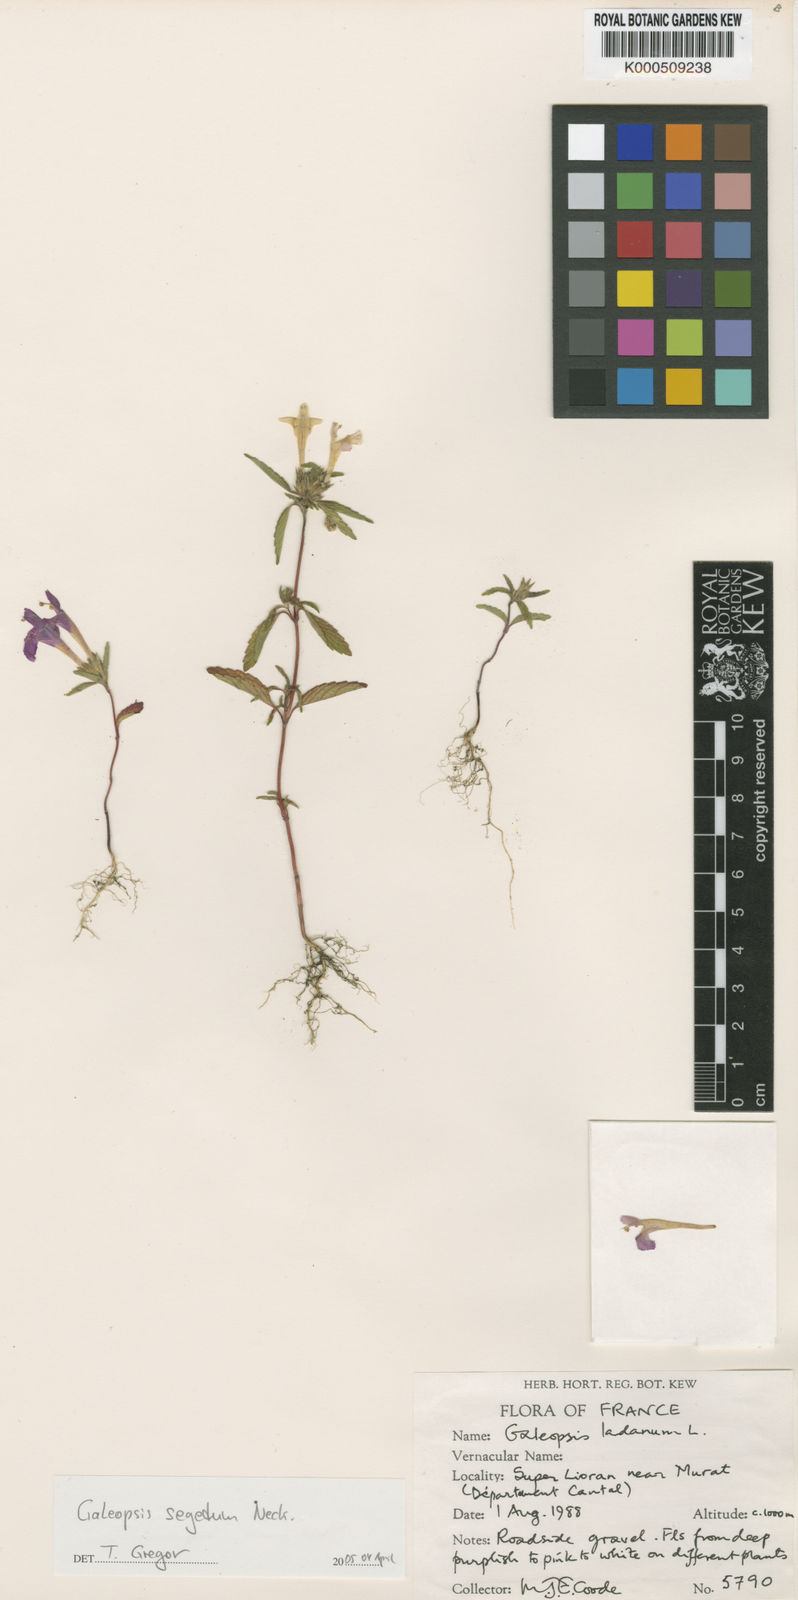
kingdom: Plantae
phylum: Tracheophyta
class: Magnoliopsida
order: Lamiales
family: Lamiaceae
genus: Galeopsis
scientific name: Galeopsis segetum
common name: Downy hemp-nettle
